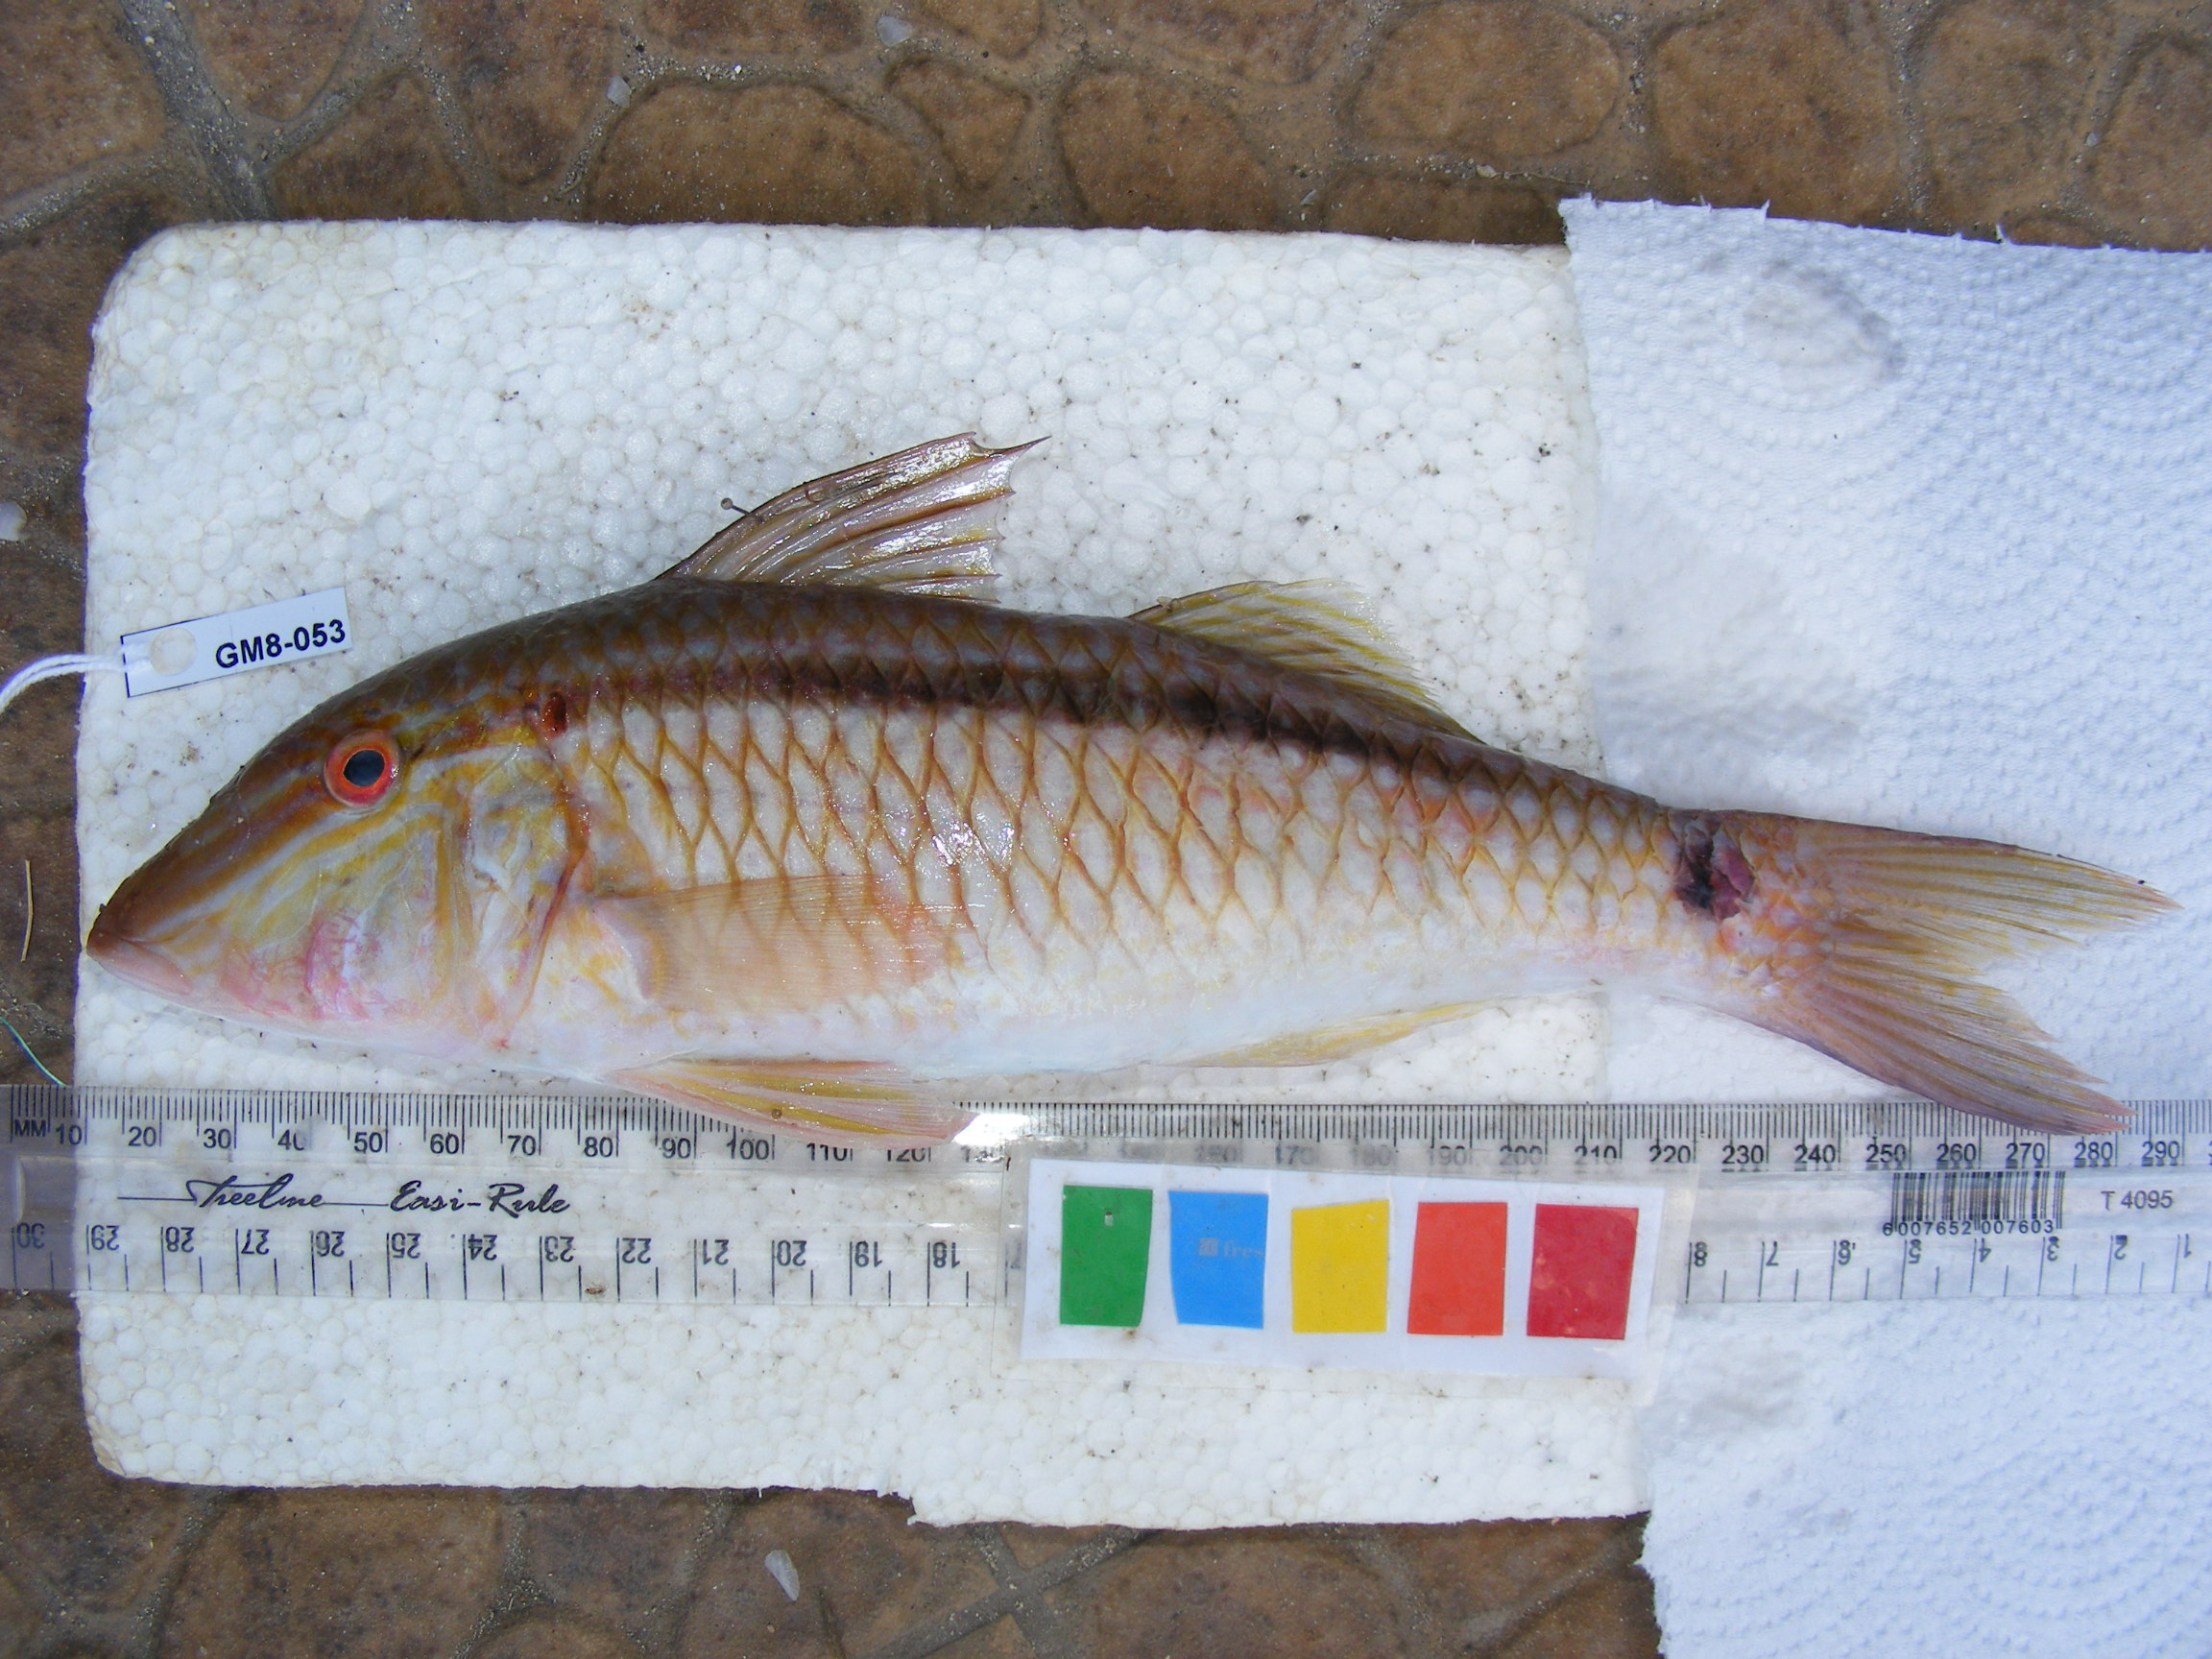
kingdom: Animalia
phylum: Chordata
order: Perciformes
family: Mullidae
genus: Parupeneus
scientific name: Parupeneus barberinus
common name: Dash-and-dot goatfish
